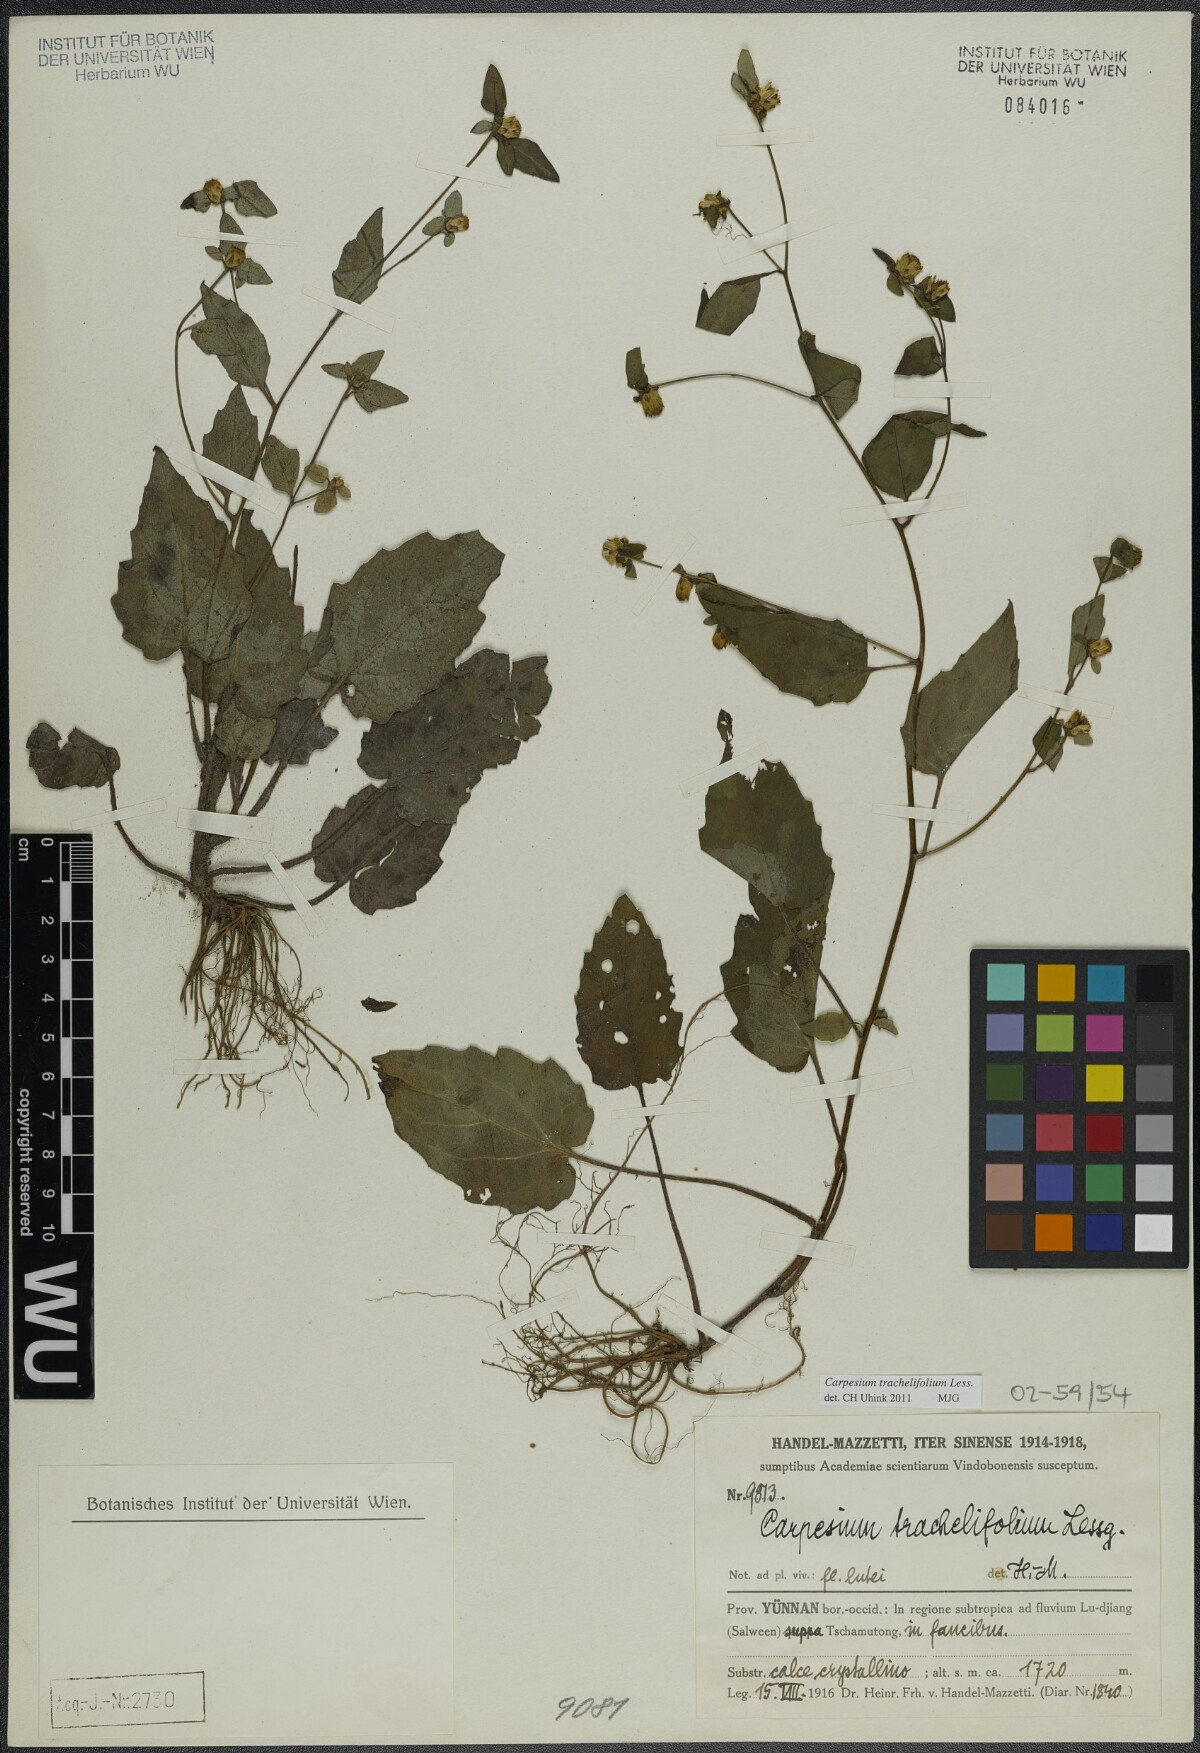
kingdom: Plantae
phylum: Tracheophyta
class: Magnoliopsida
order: Asterales
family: Asteraceae
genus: Carpesium
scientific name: Carpesium trachelifolium
